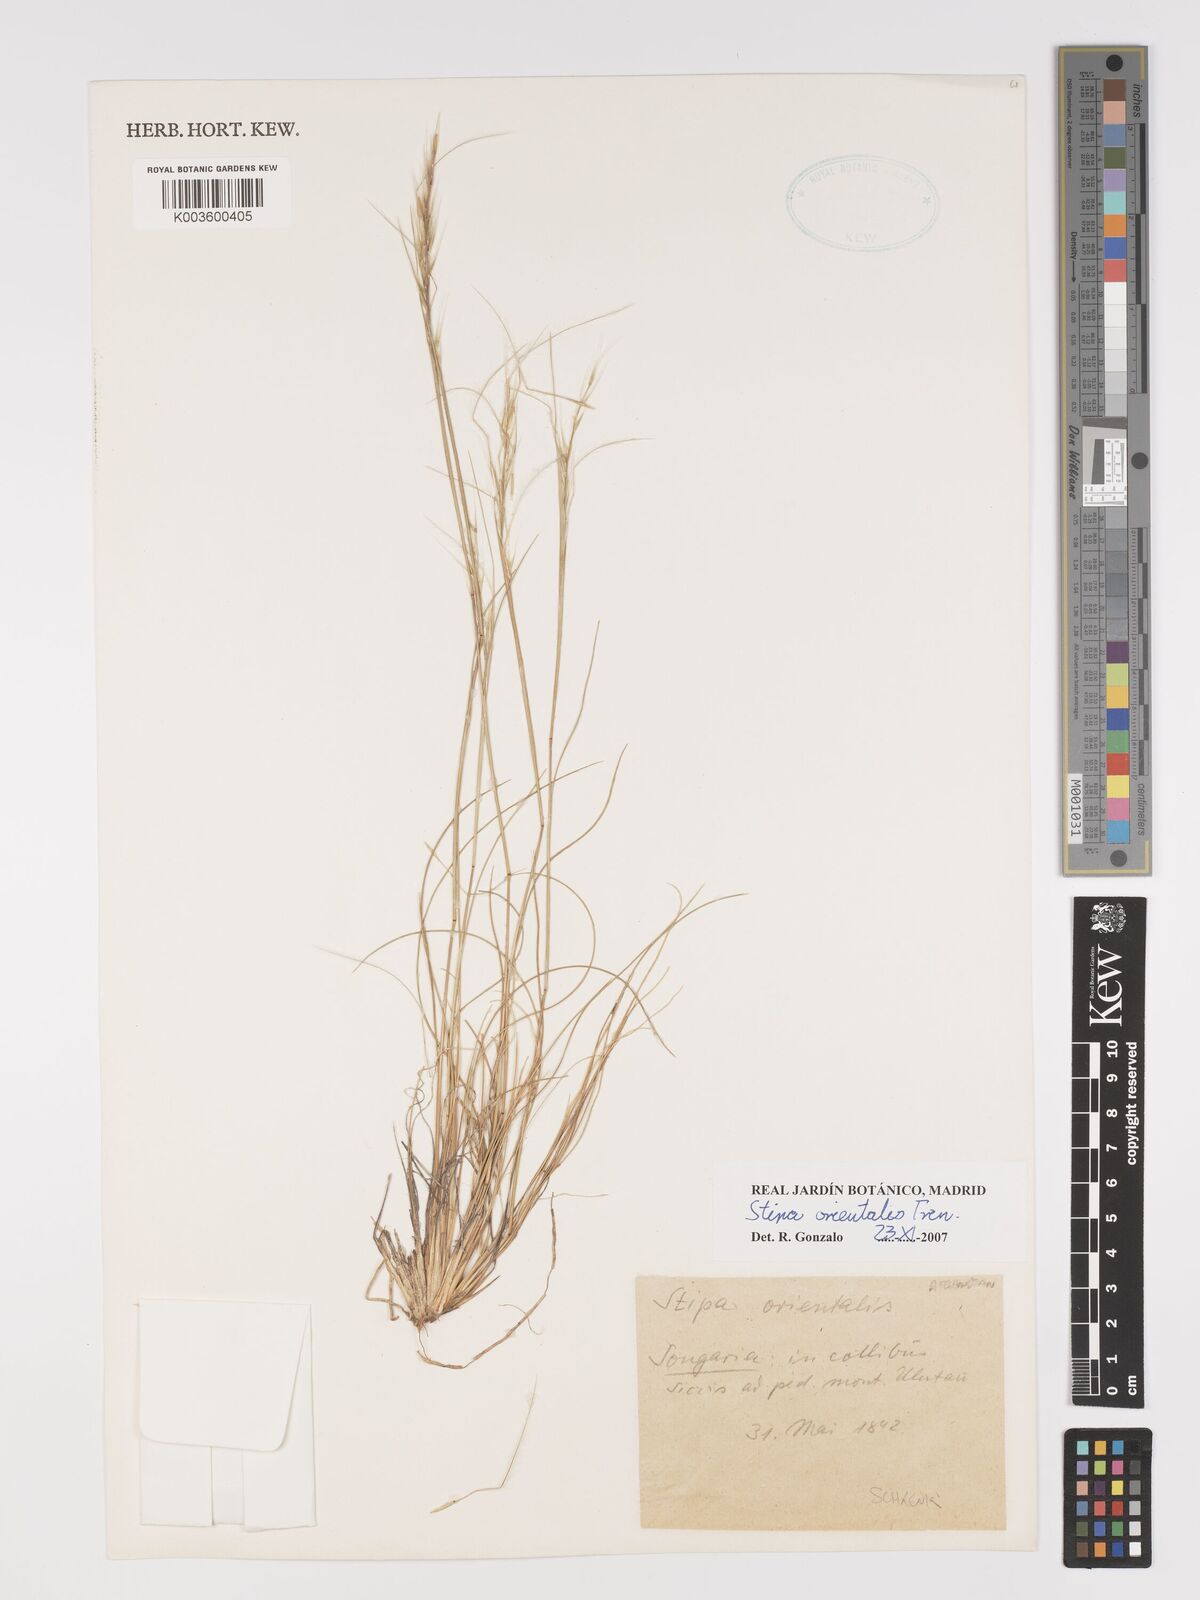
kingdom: Plantae
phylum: Tracheophyta
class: Liliopsida
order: Poales
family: Poaceae
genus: Stipa
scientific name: Stipa orientalis
